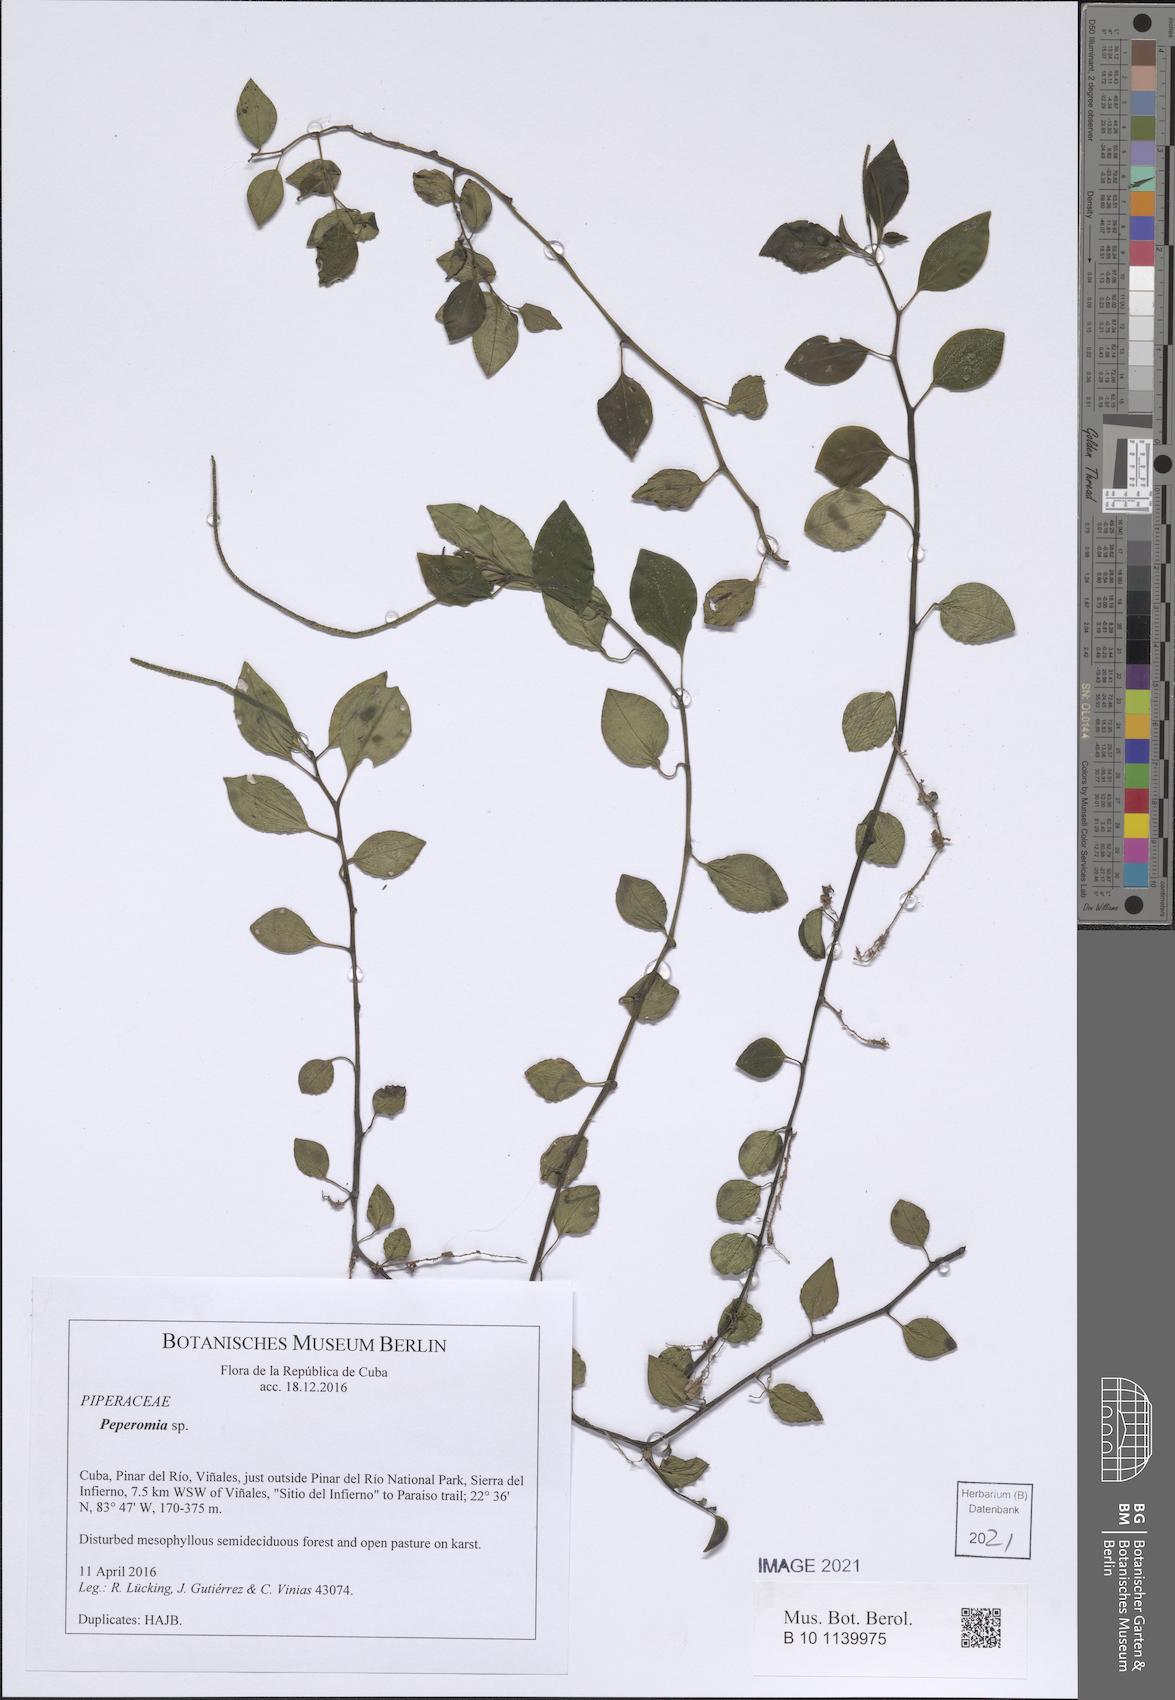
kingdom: Plantae
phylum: Tracheophyta
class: Magnoliopsida
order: Piperales
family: Piperaceae
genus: Peperomia
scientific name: Peperomia
